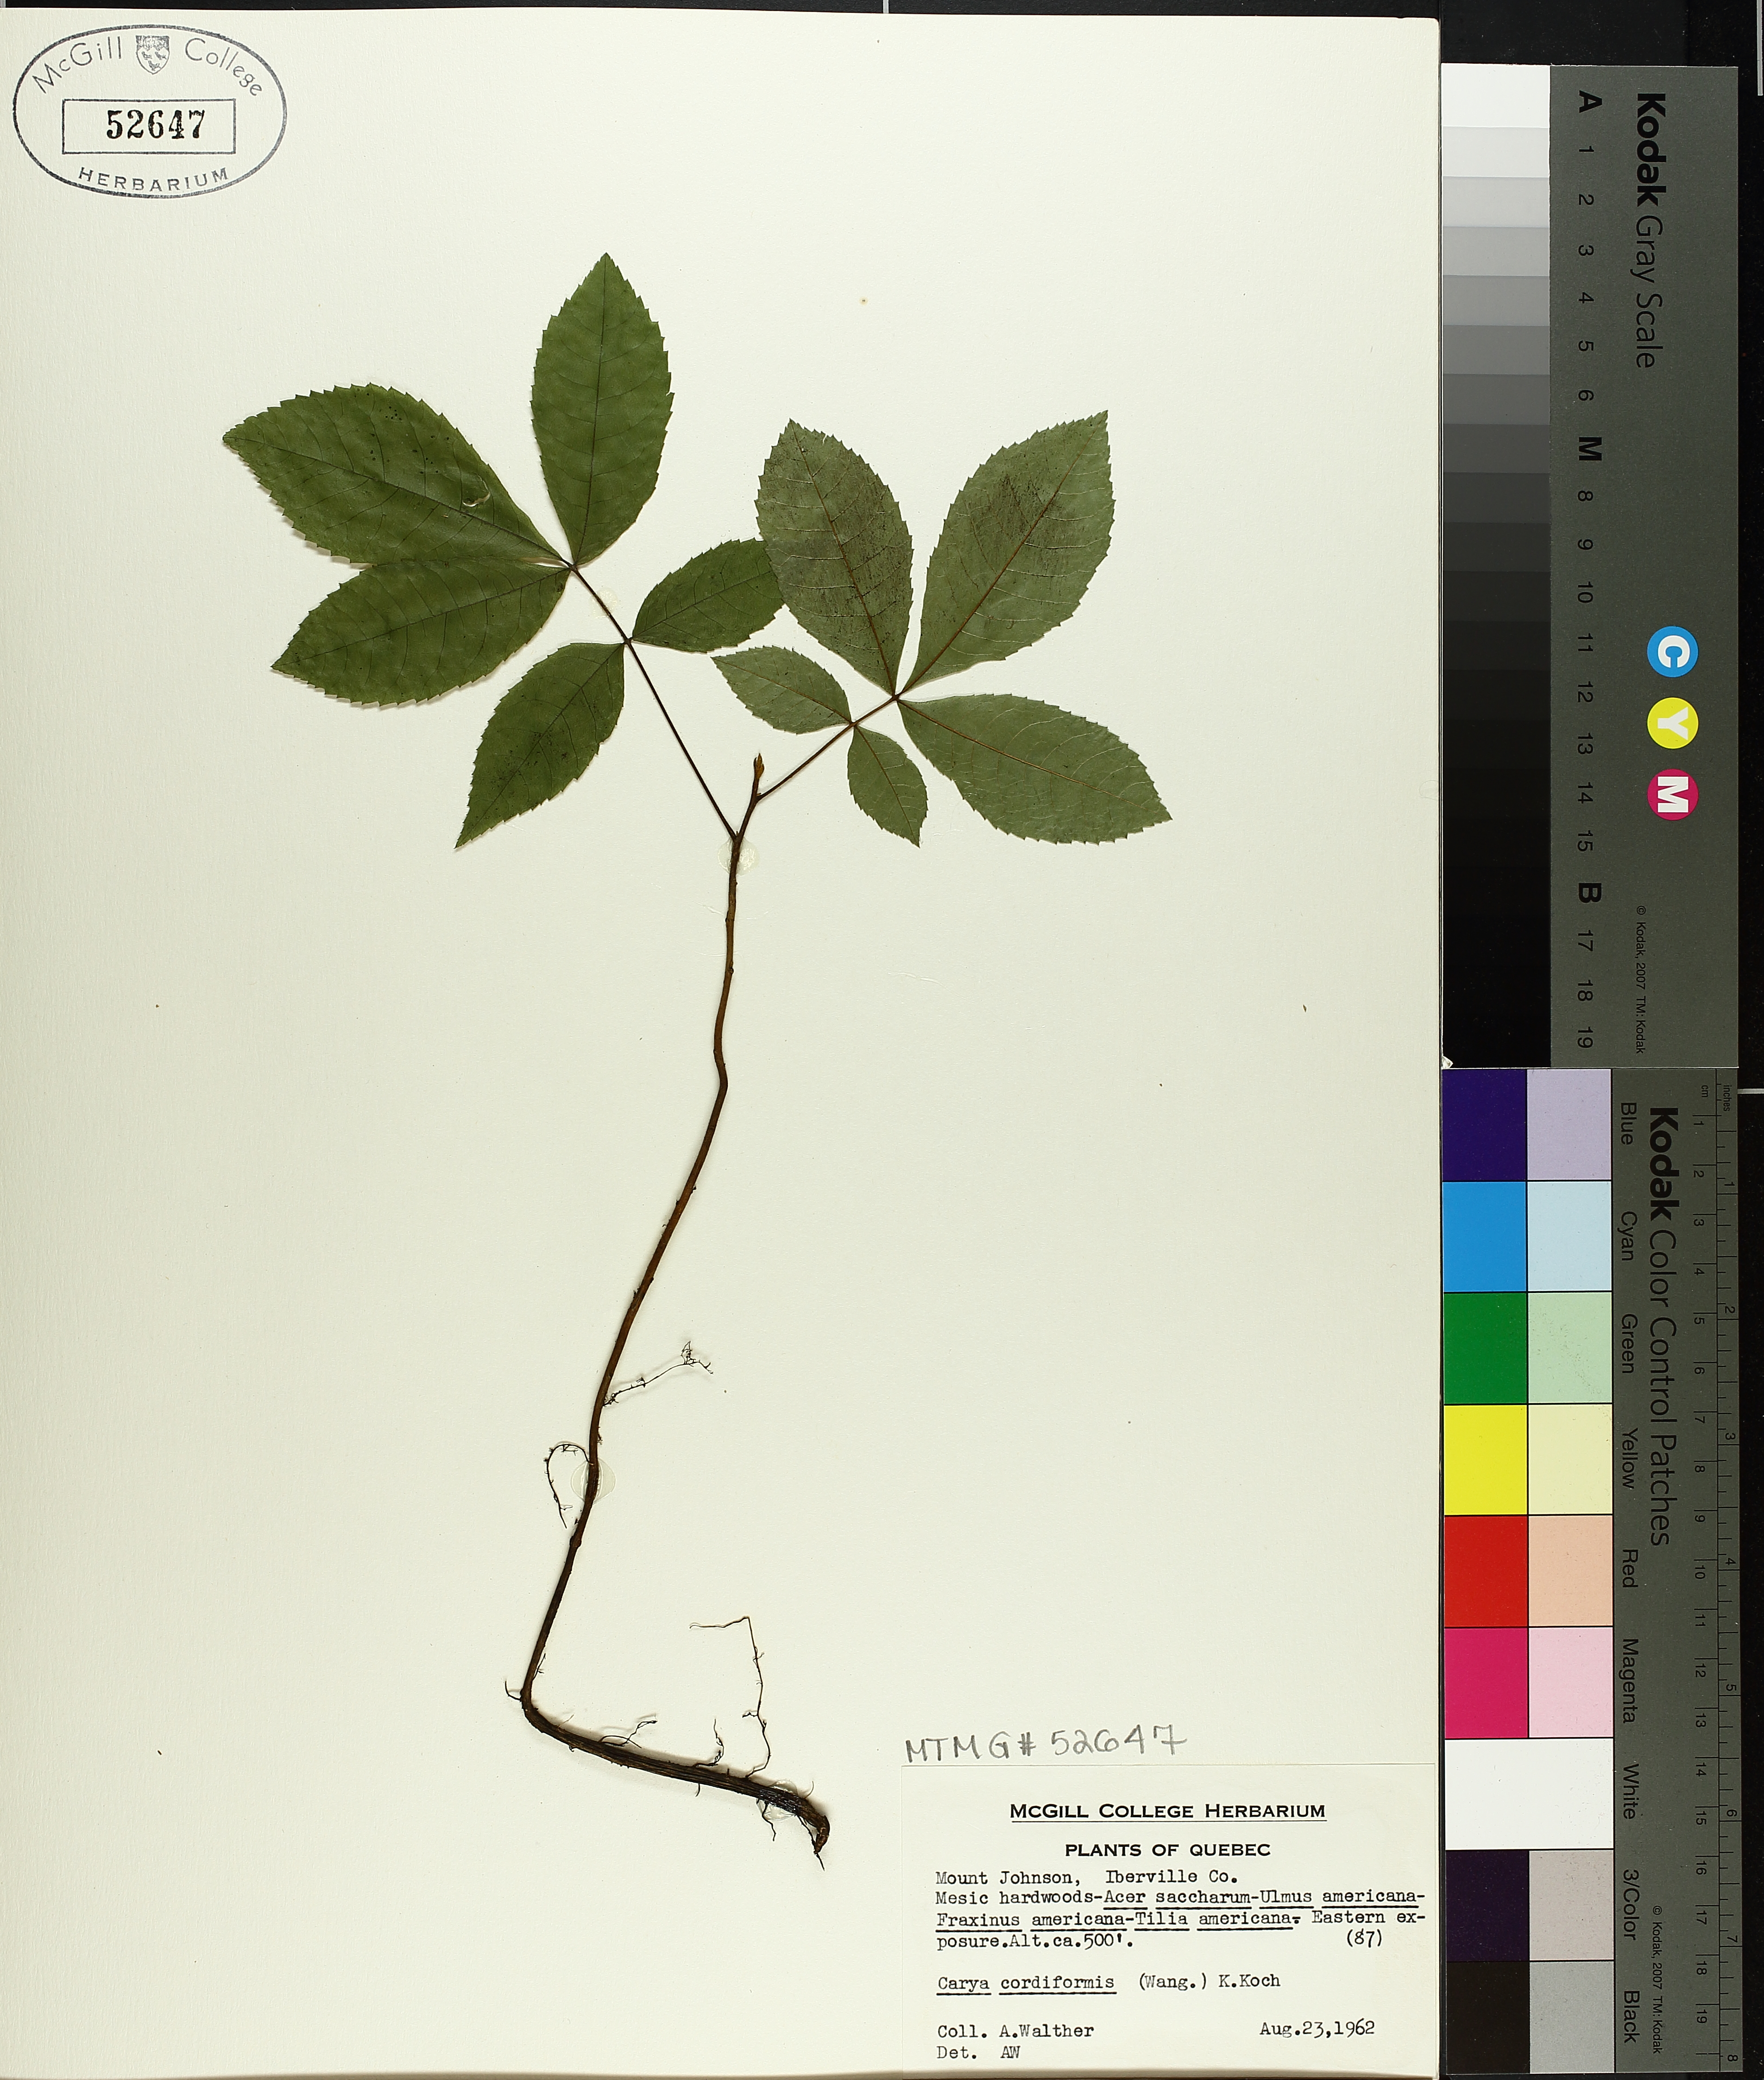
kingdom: Plantae
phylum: Tracheophyta
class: Magnoliopsida
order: Fagales
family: Juglandaceae
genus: Carya
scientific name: Carya cordiformis
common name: Bitternut hickory
